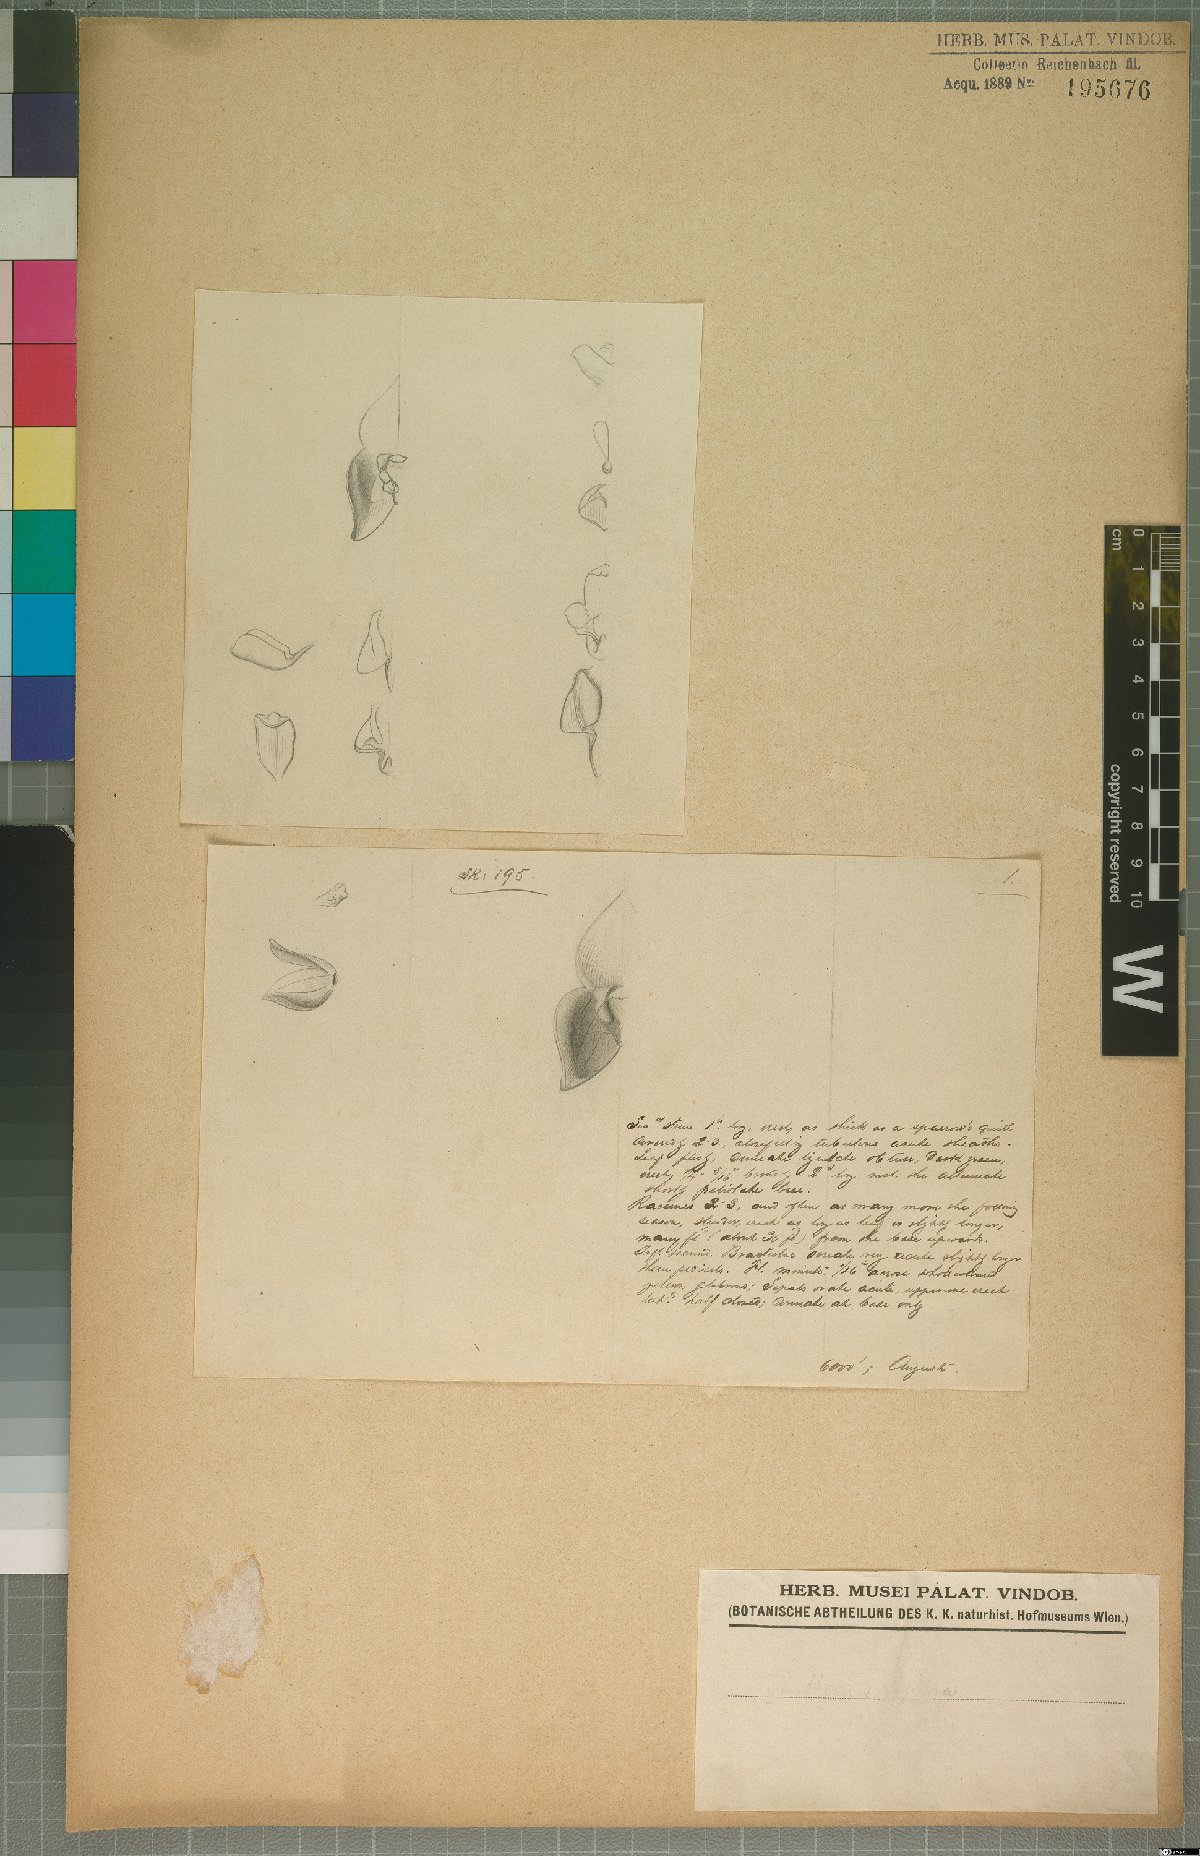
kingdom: Plantae
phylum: Tracheophyta
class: Liliopsida
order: Asparagales
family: Orchidaceae
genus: Stelis
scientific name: Stelis
